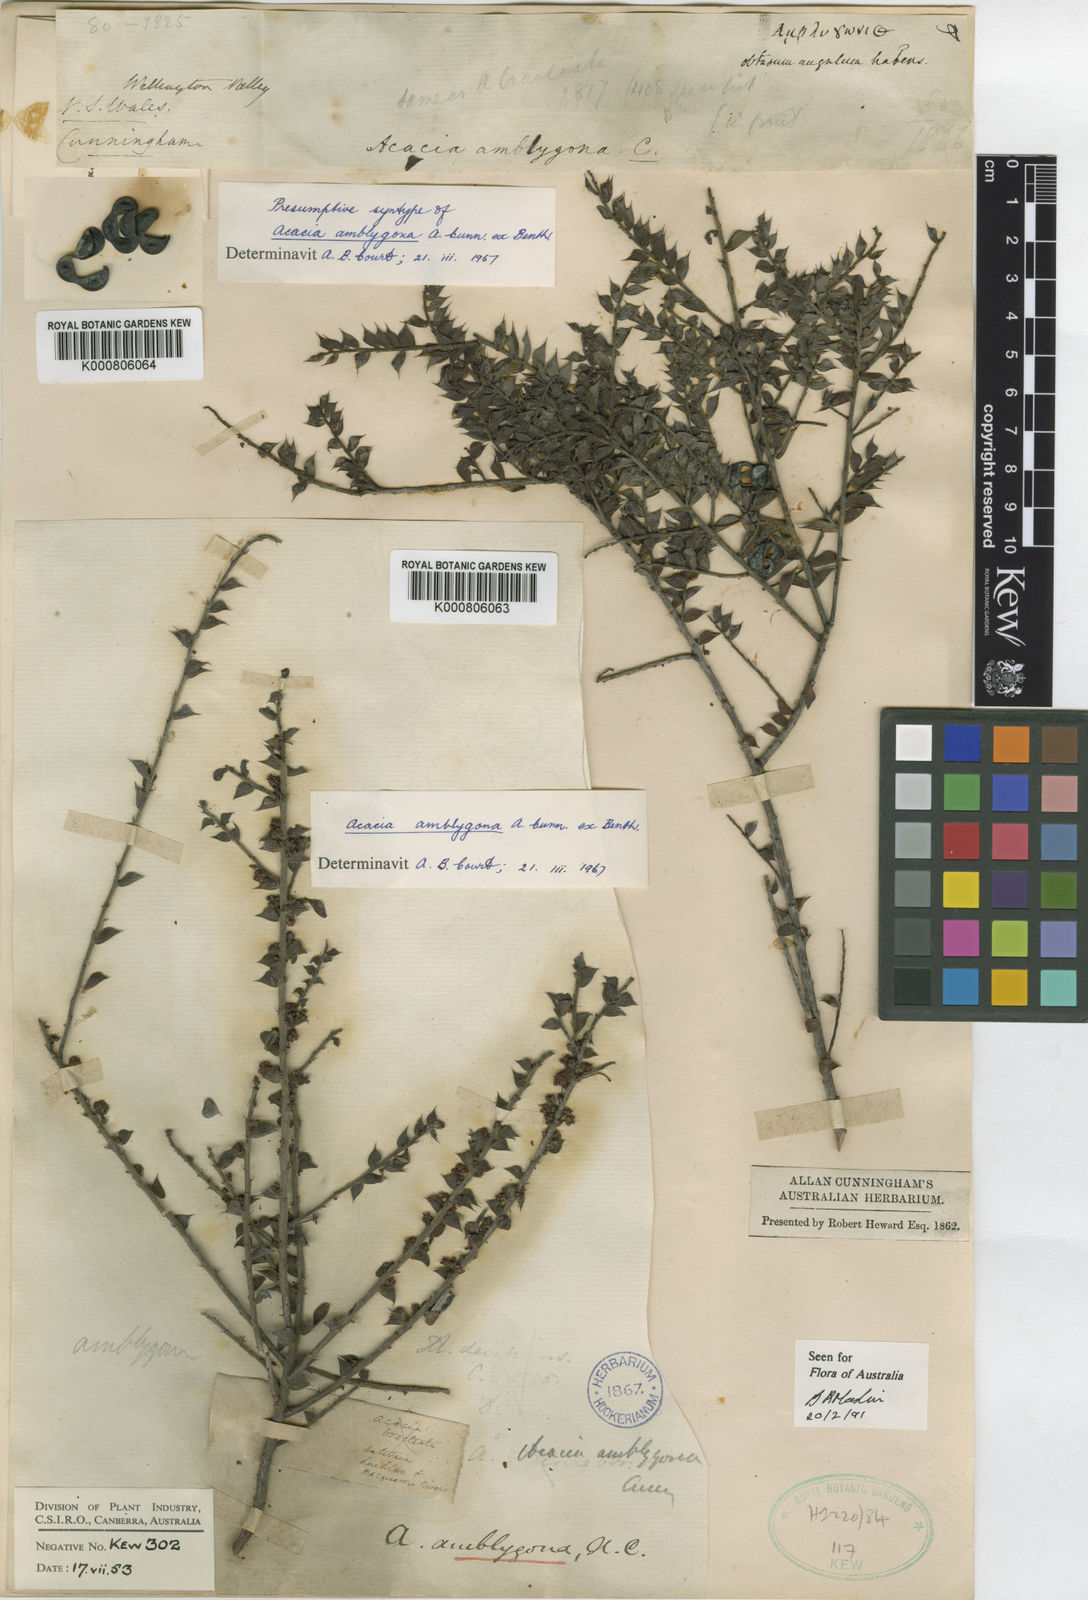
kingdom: Plantae
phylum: Tracheophyta
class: Magnoliopsida
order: Fabales
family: Fabaceae
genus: Acacia
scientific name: Acacia amblygona
